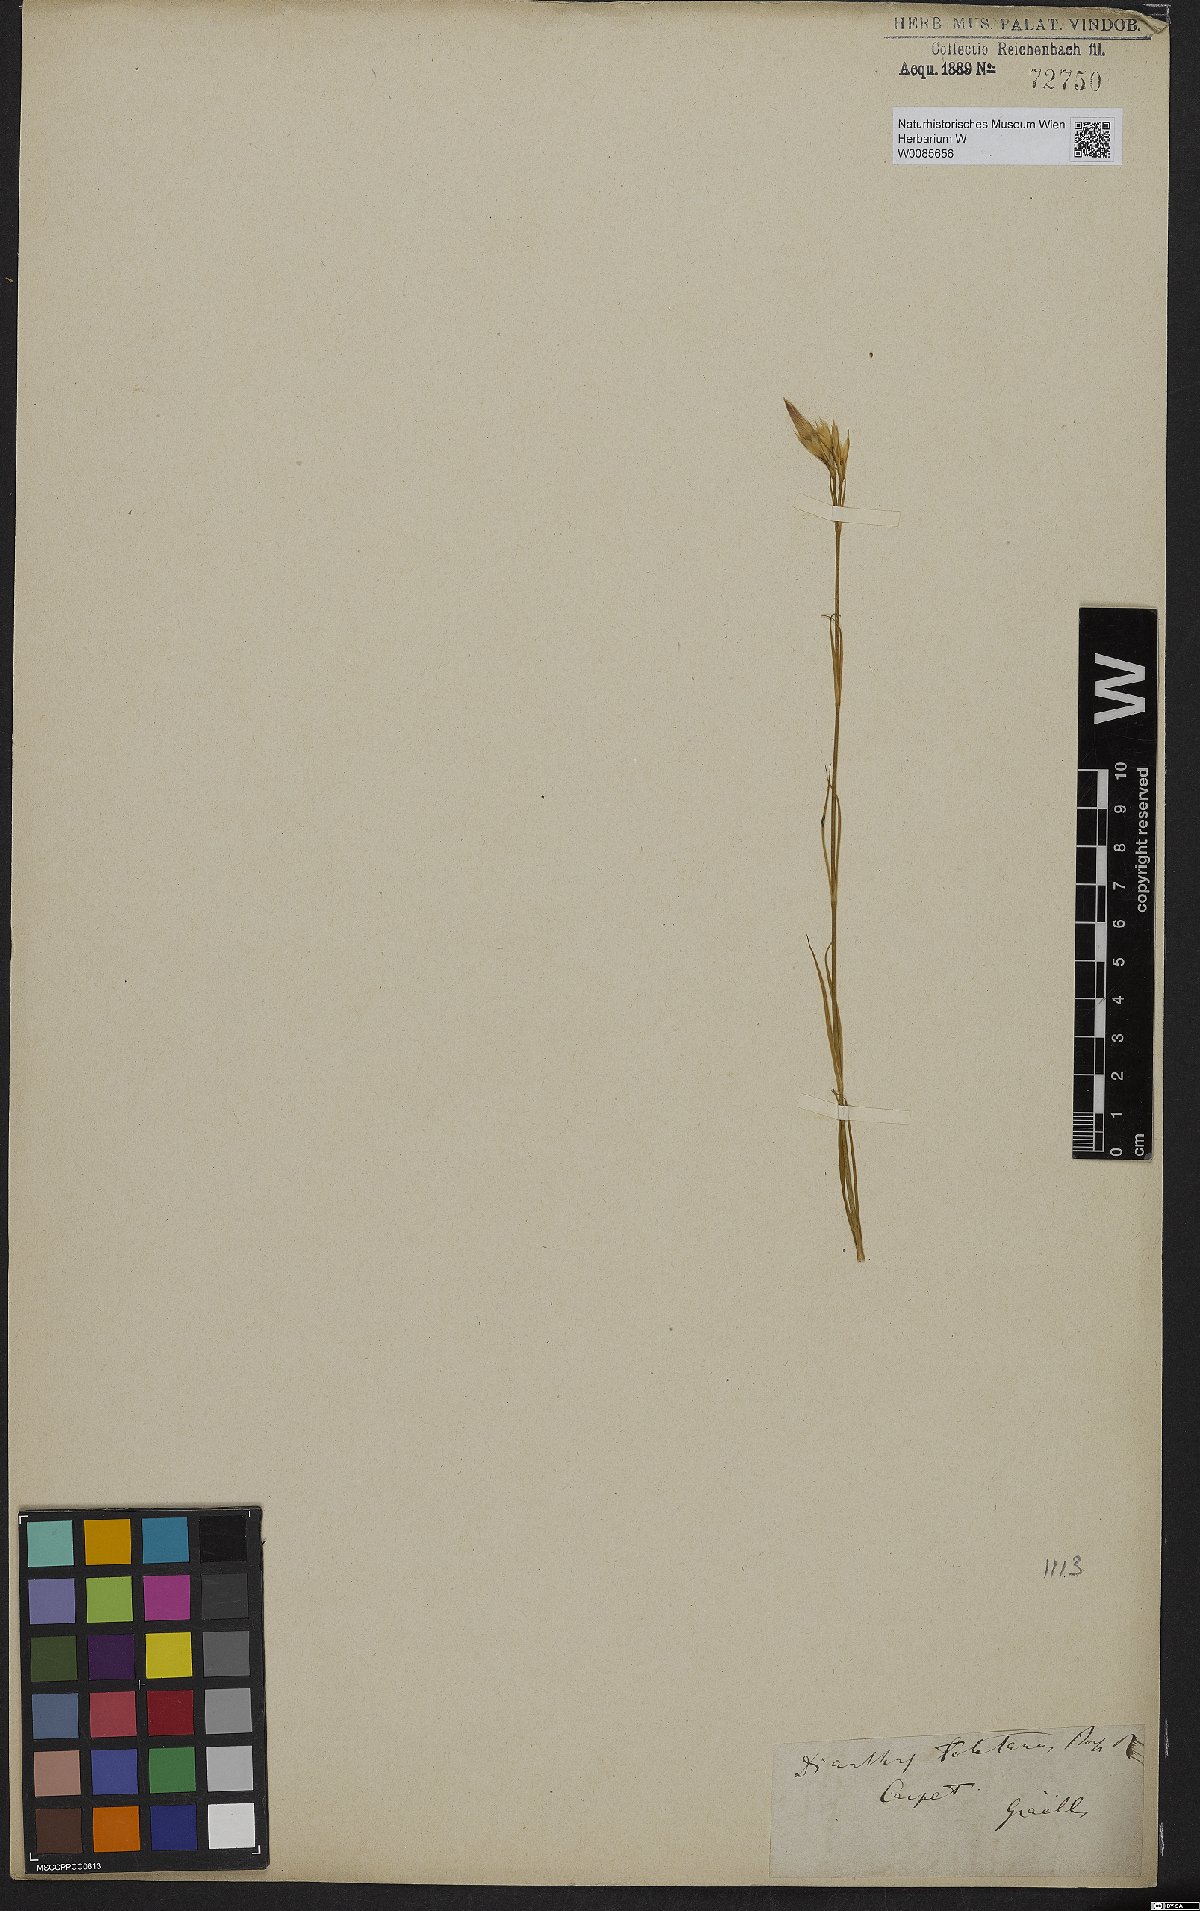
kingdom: Plantae
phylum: Tracheophyta
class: Magnoliopsida
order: Caryophyllales
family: Caryophyllaceae
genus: Dianthus
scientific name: Dianthus toletanus
